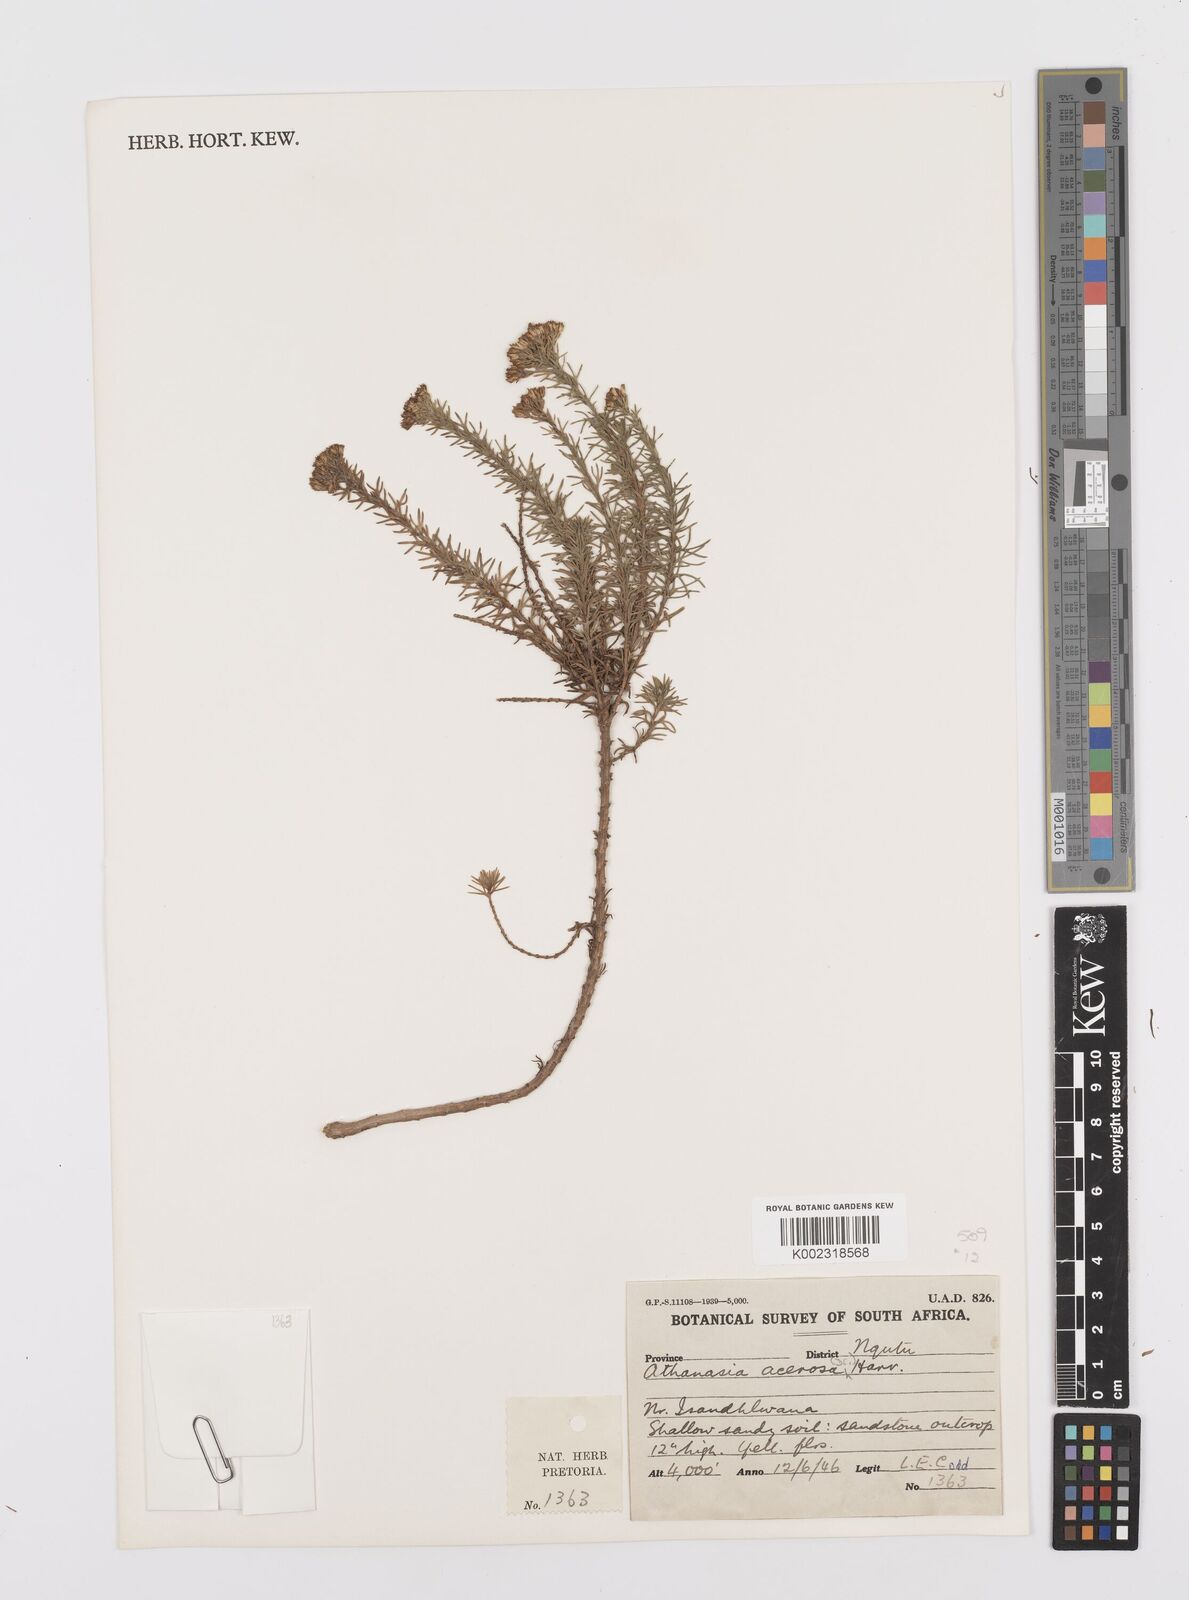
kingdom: Plantae
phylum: Tracheophyta
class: Magnoliopsida
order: Asterales
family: Asteraceae
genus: Phymaspermum
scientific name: Phymaspermum acerosum
